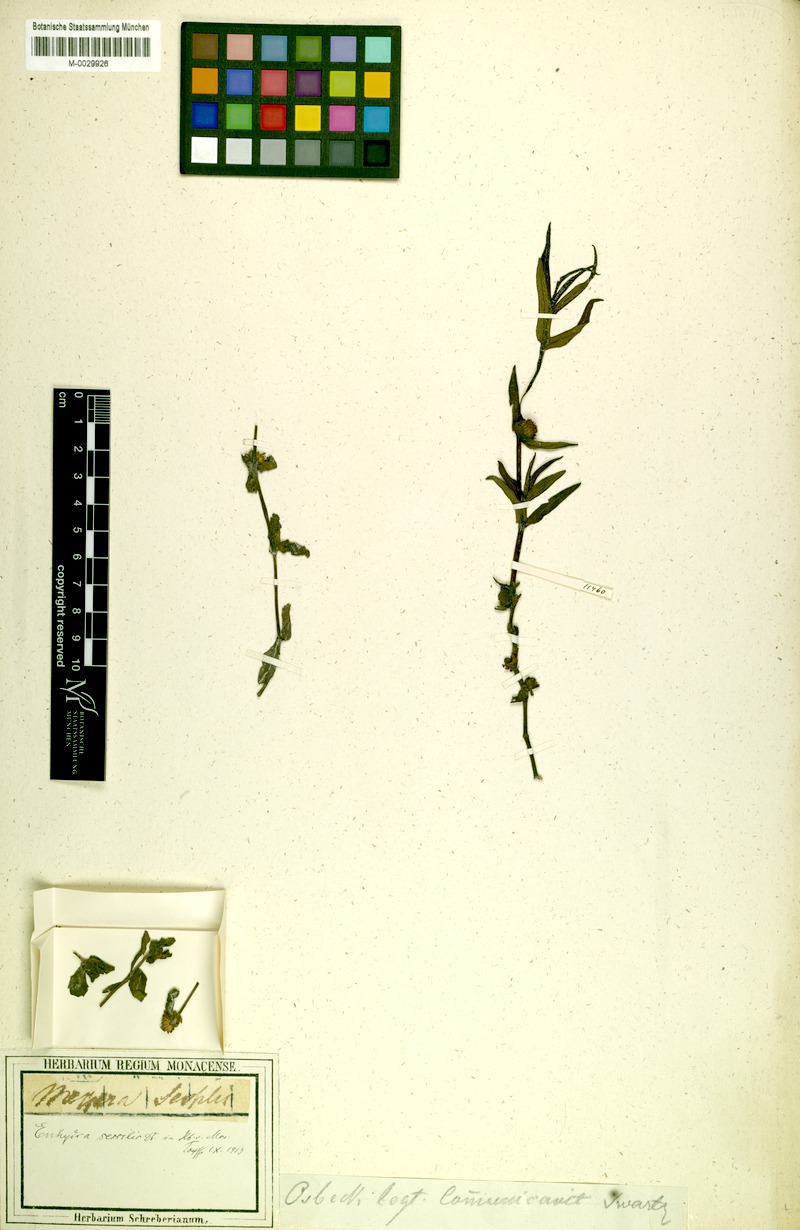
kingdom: Animalia
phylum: Chordata
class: Mammalia
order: Carnivora
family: Mustelidae
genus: Enhydra
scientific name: Enhydra
